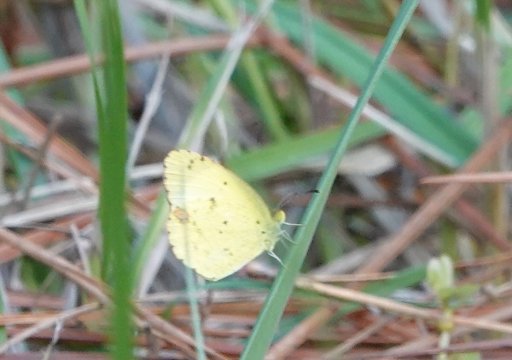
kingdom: Animalia
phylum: Arthropoda
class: Insecta
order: Lepidoptera
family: Pieridae
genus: Pyrisitia
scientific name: Pyrisitia lisa
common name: Little Yellow
